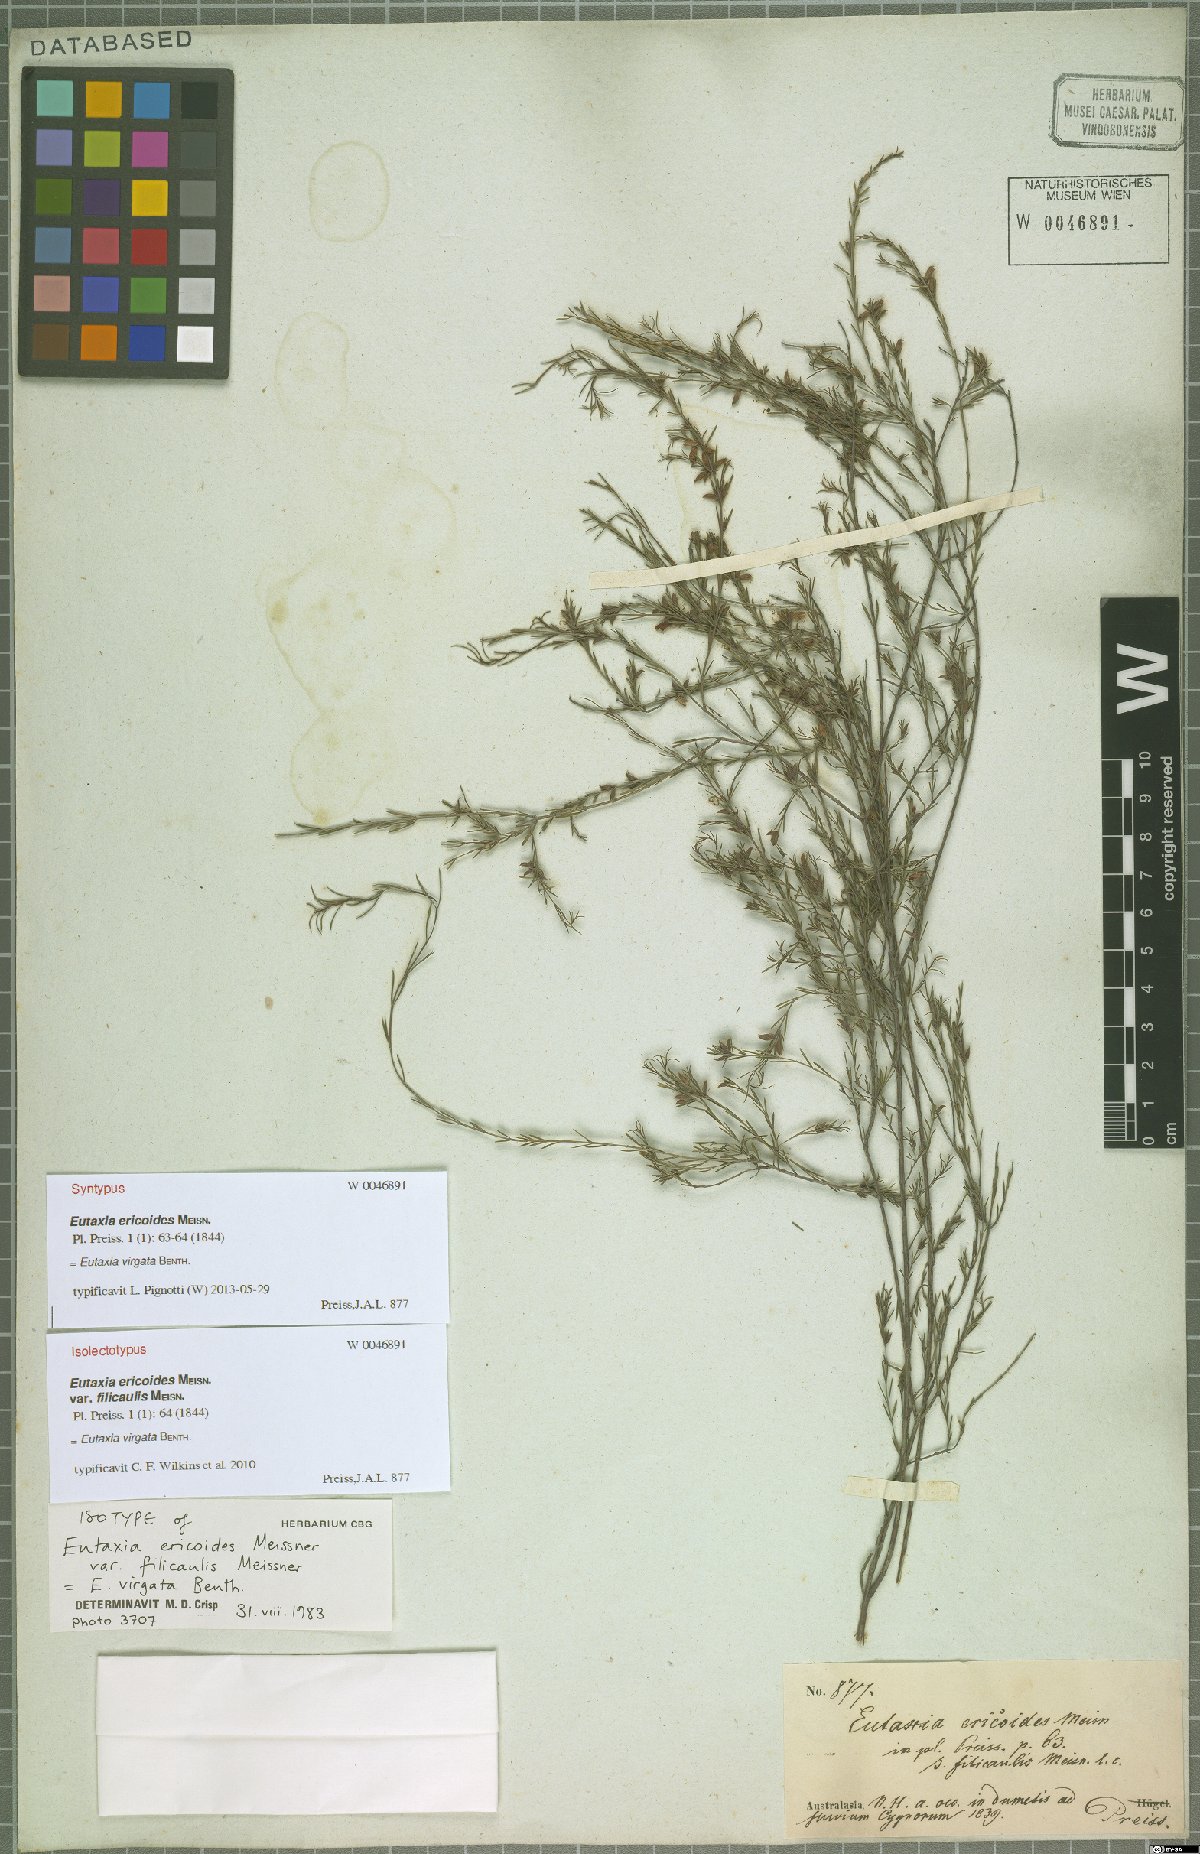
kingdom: Plantae
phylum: Tracheophyta
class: Magnoliopsida
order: Fabales
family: Fabaceae
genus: Eutaxia
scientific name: Eutaxia virgata
